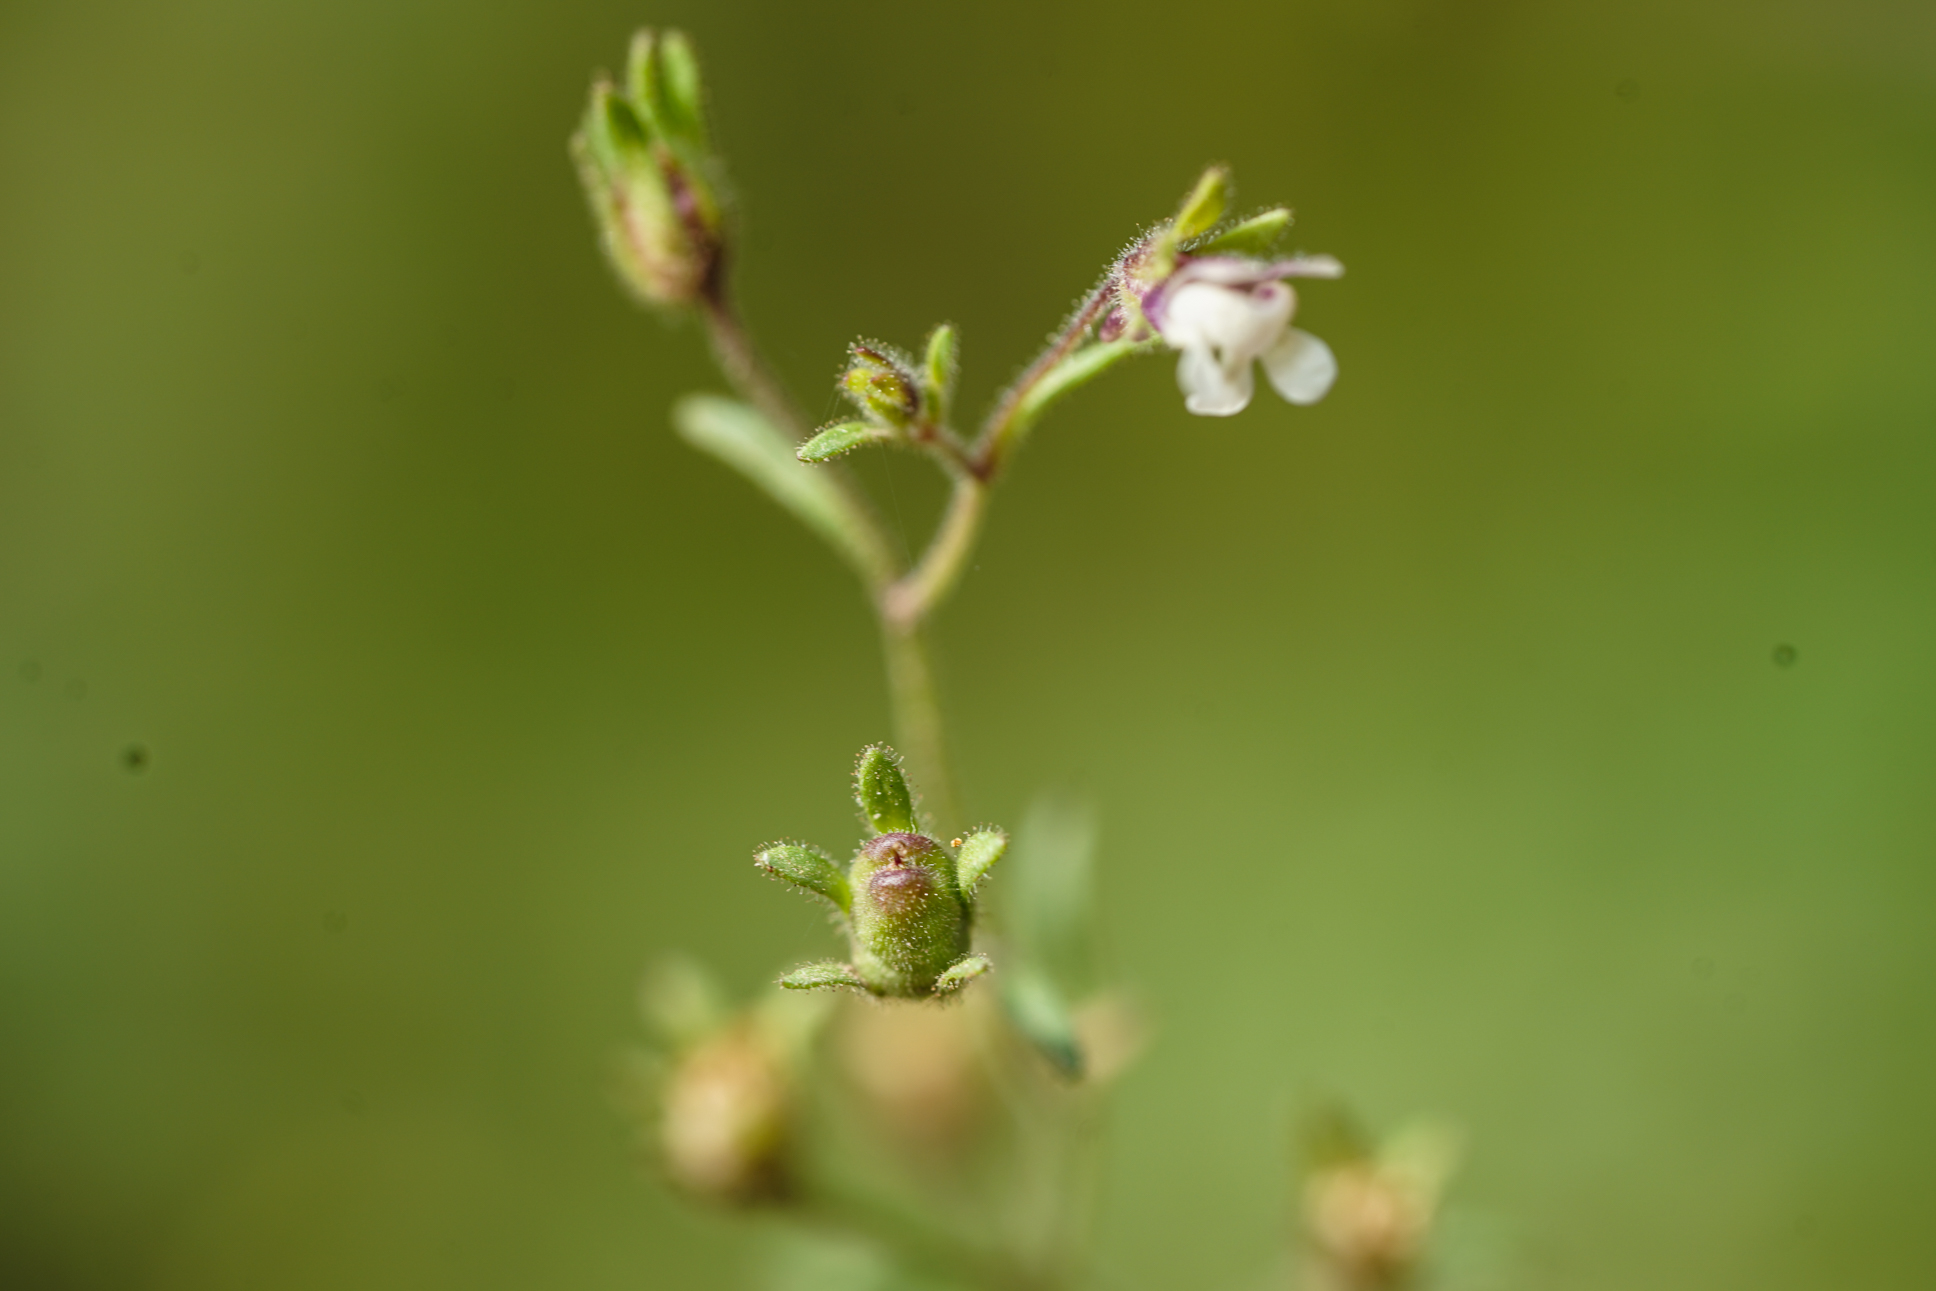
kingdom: Plantae
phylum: Tracheophyta
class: Magnoliopsida
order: Lamiales
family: Plantaginaceae
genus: Chaenorhinum
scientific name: Chaenorhinum minus
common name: Dwarf snapdragon
